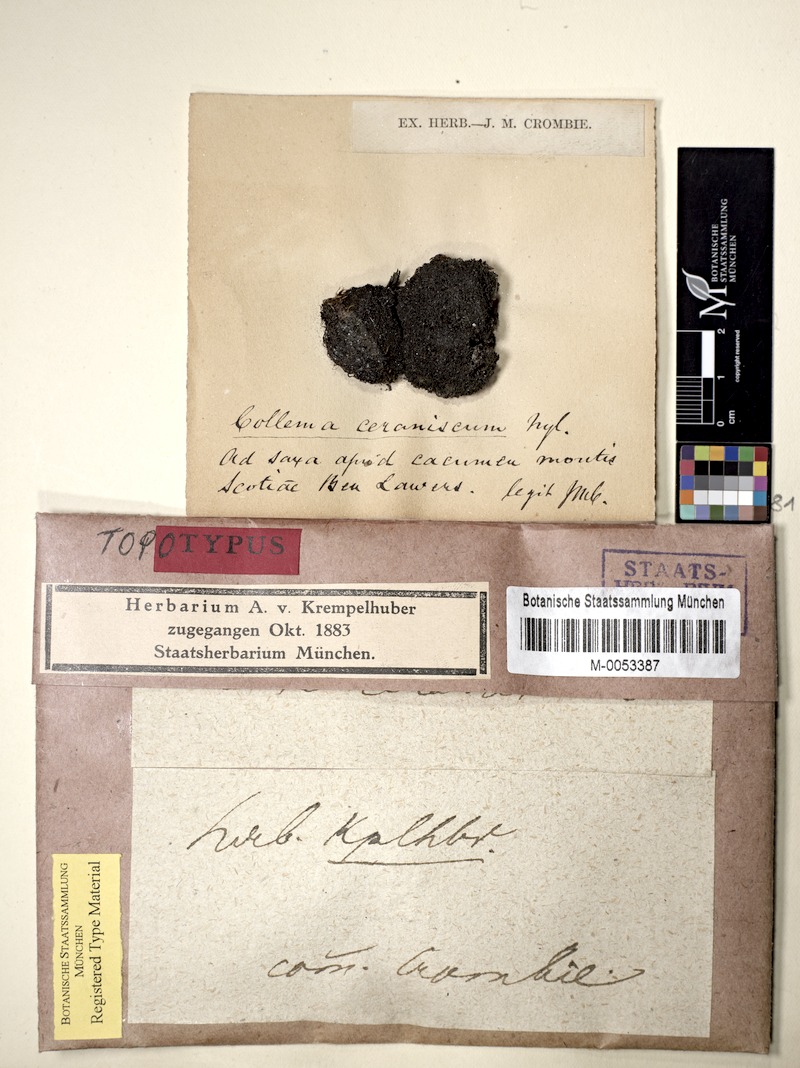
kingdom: Fungi
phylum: Ascomycota
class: Lecanoromycetes
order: Peltigerales
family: Collemataceae
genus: Rostania
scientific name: Rostania ceranisca
